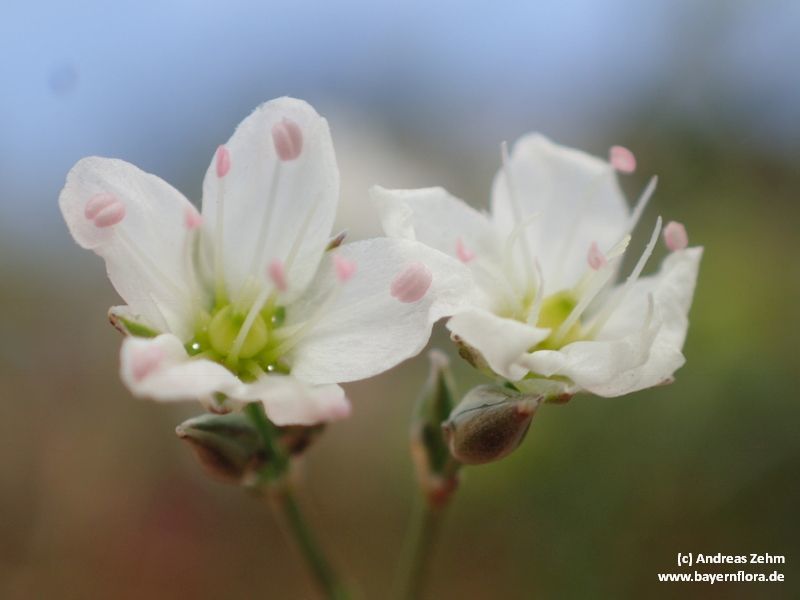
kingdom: Plantae
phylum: Tracheophyta
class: Magnoliopsida
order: Caryophyllales
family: Caryophyllaceae
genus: Sabulina
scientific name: Sabulina verna
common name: Spring sandwort
